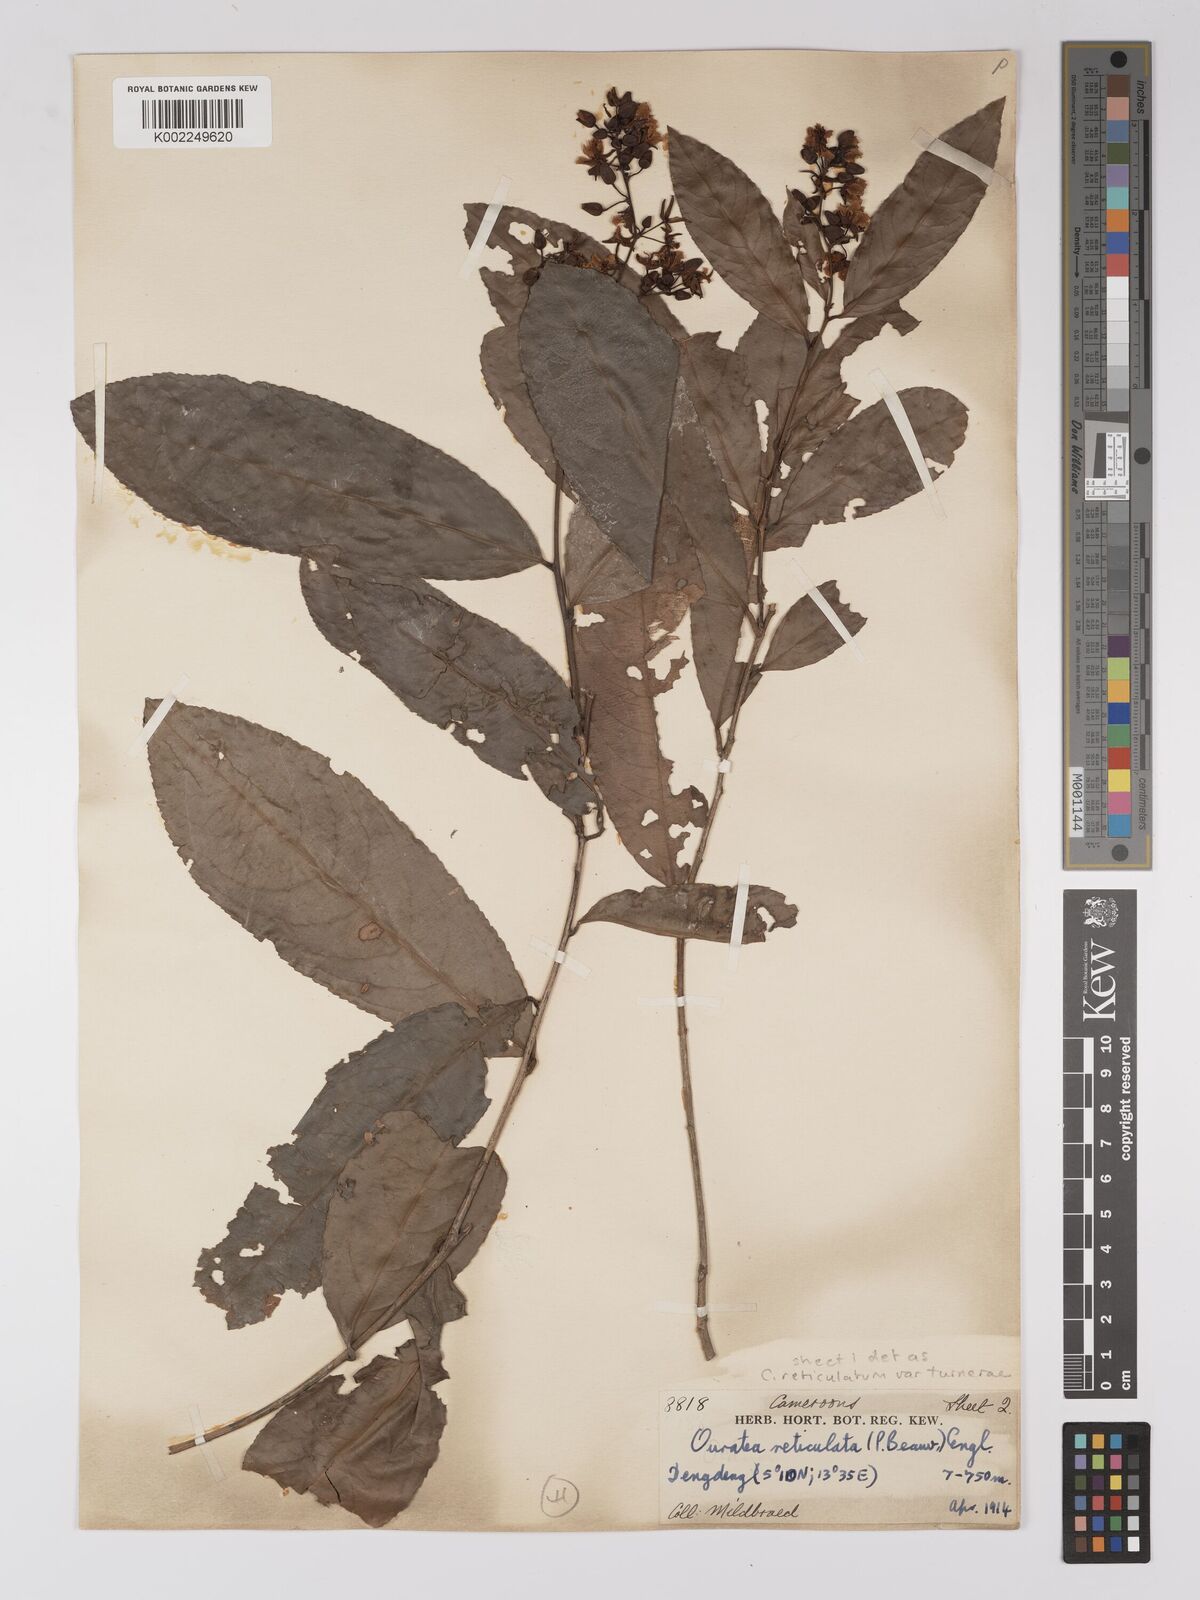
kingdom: Plantae
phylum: Tracheophyta
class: Magnoliopsida
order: Malpighiales
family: Ochnaceae
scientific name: Ochnaceae
